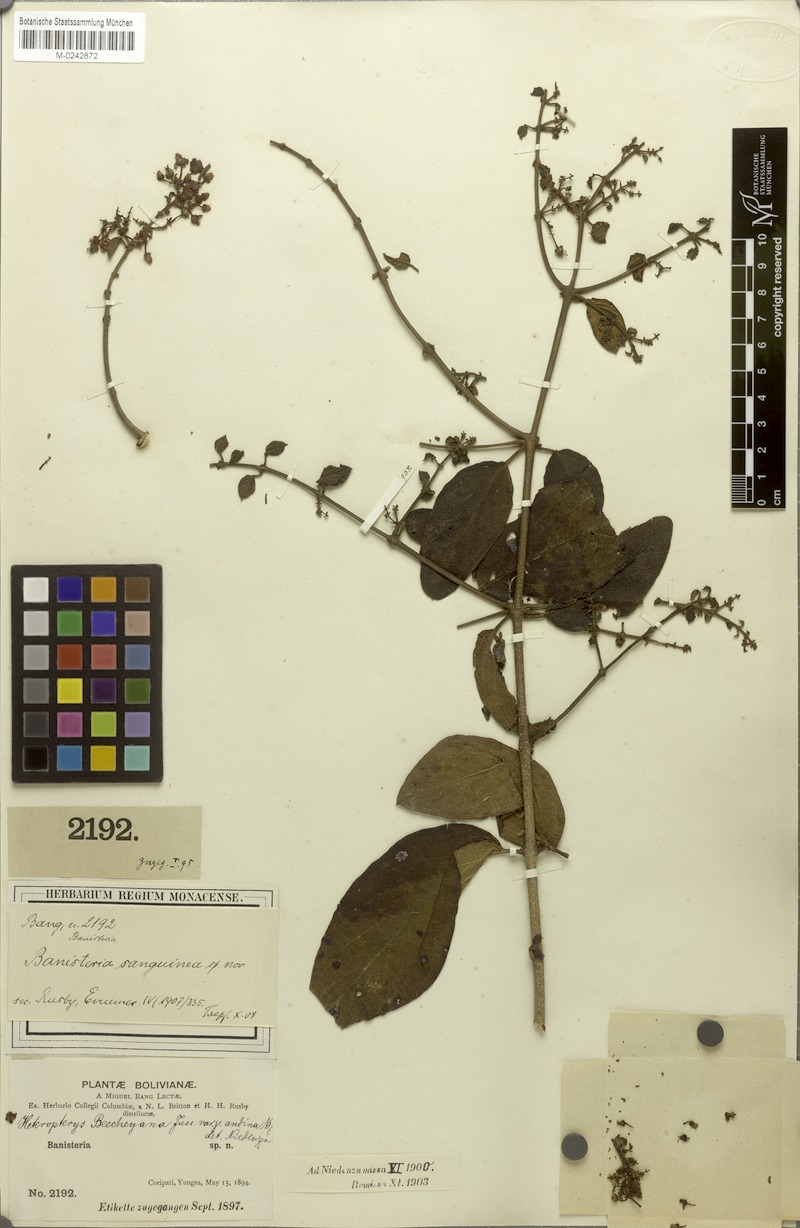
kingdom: Plantae
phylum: Tracheophyta
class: Magnoliopsida
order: Malpighiales
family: Malpighiaceae
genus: Heteropterys
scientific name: Heteropterys brachiata
